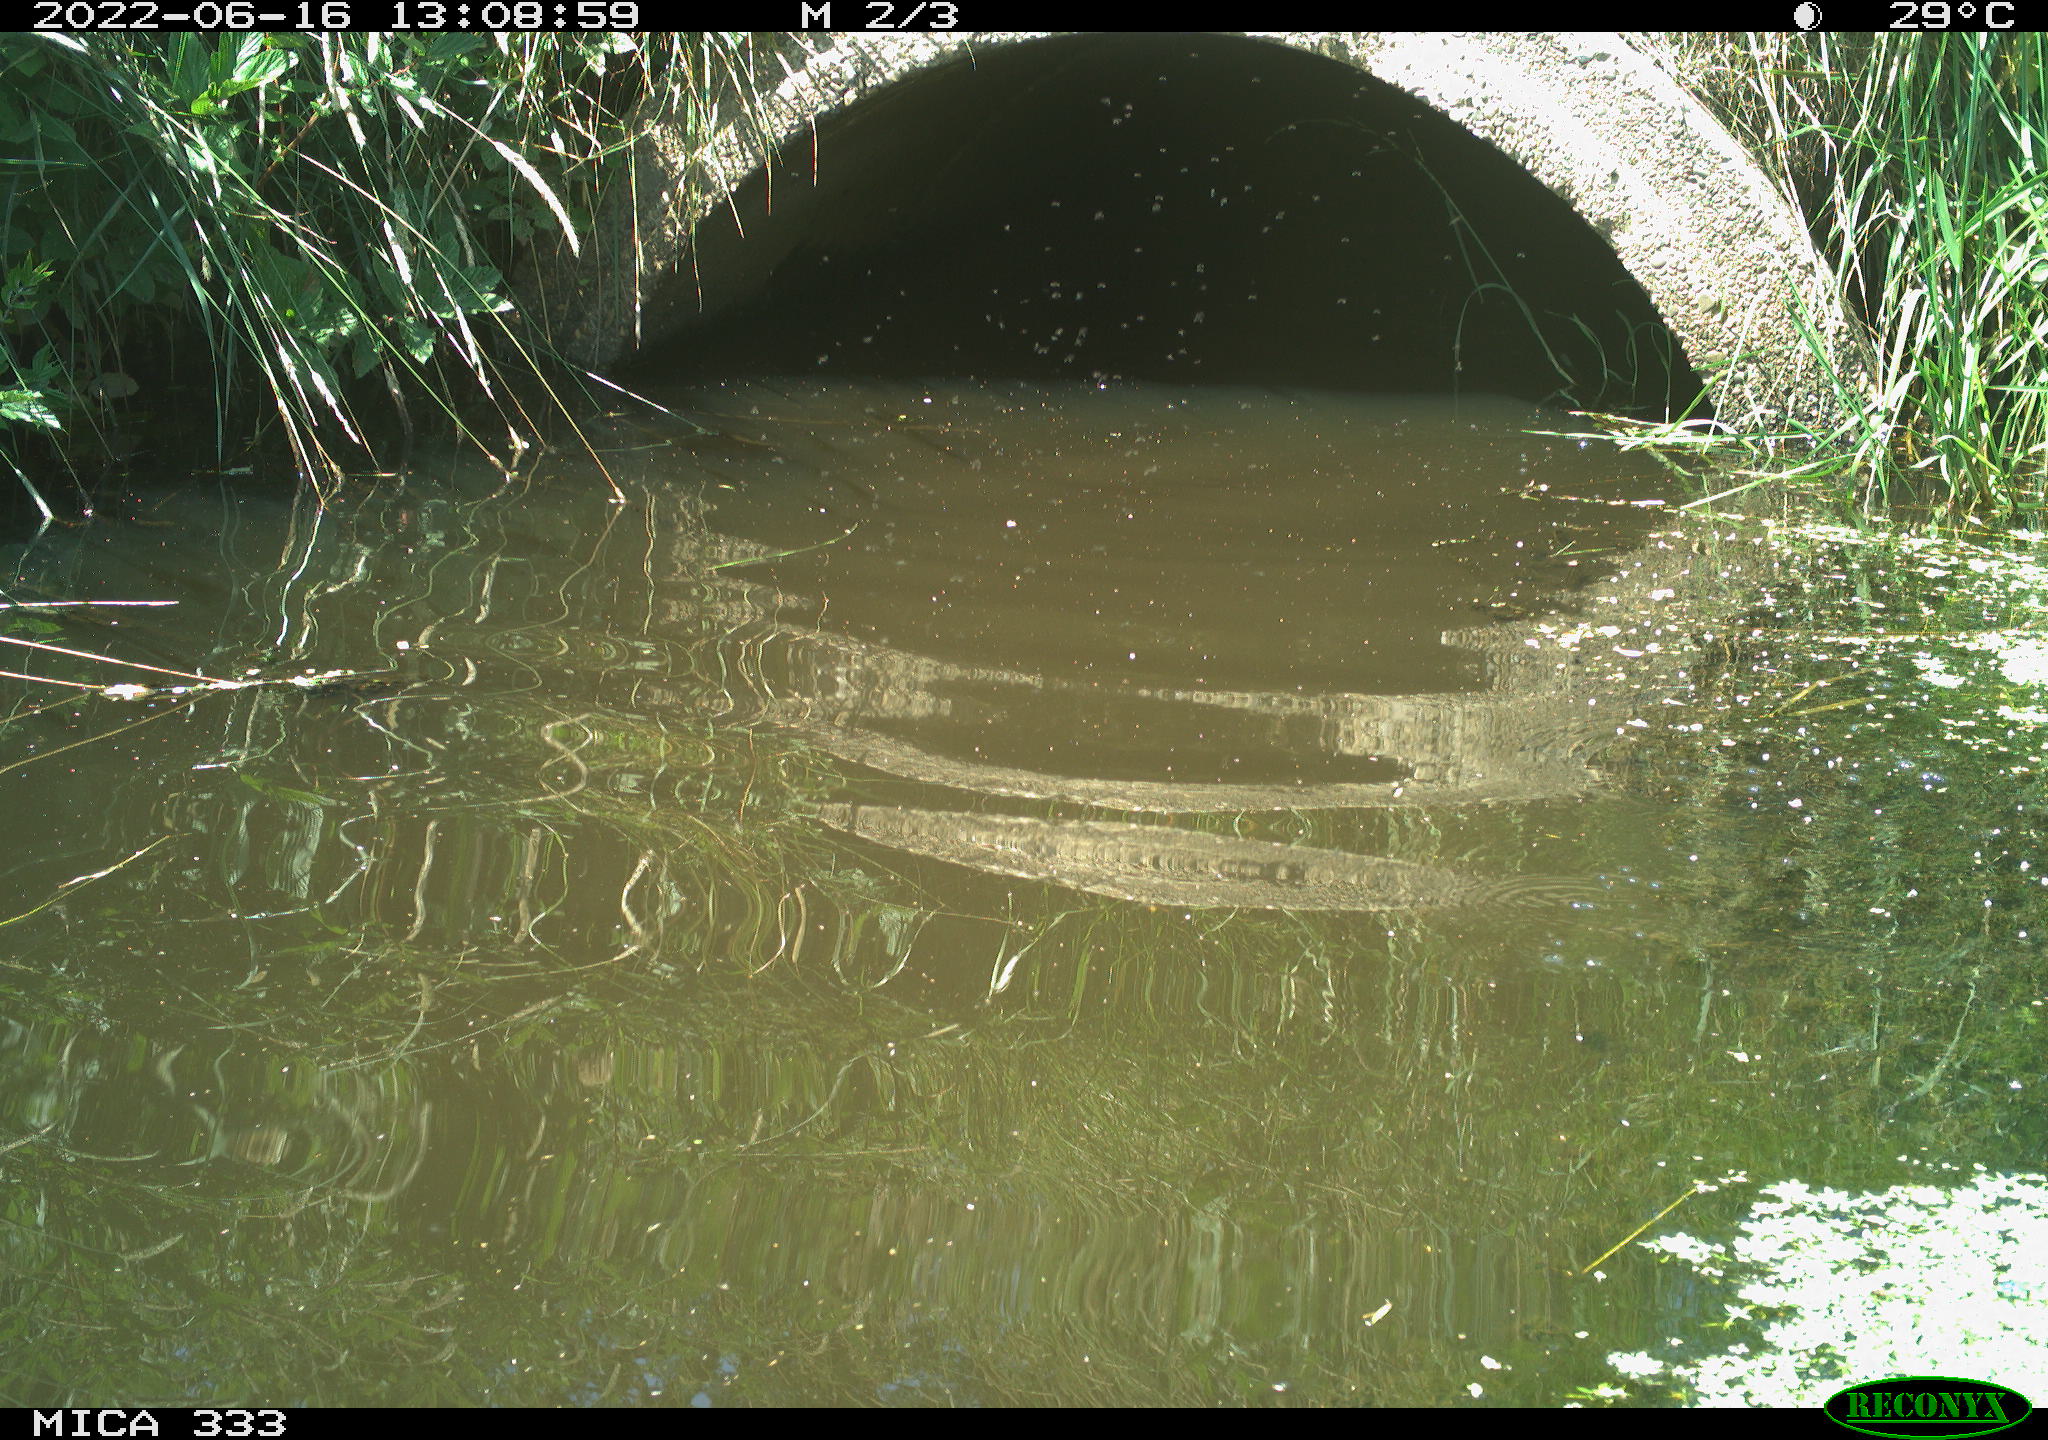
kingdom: Animalia
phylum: Chordata
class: Aves
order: Suliformes
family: Phalacrocoracidae
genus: Phalacrocorax
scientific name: Phalacrocorax carbo
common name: Great cormorant
